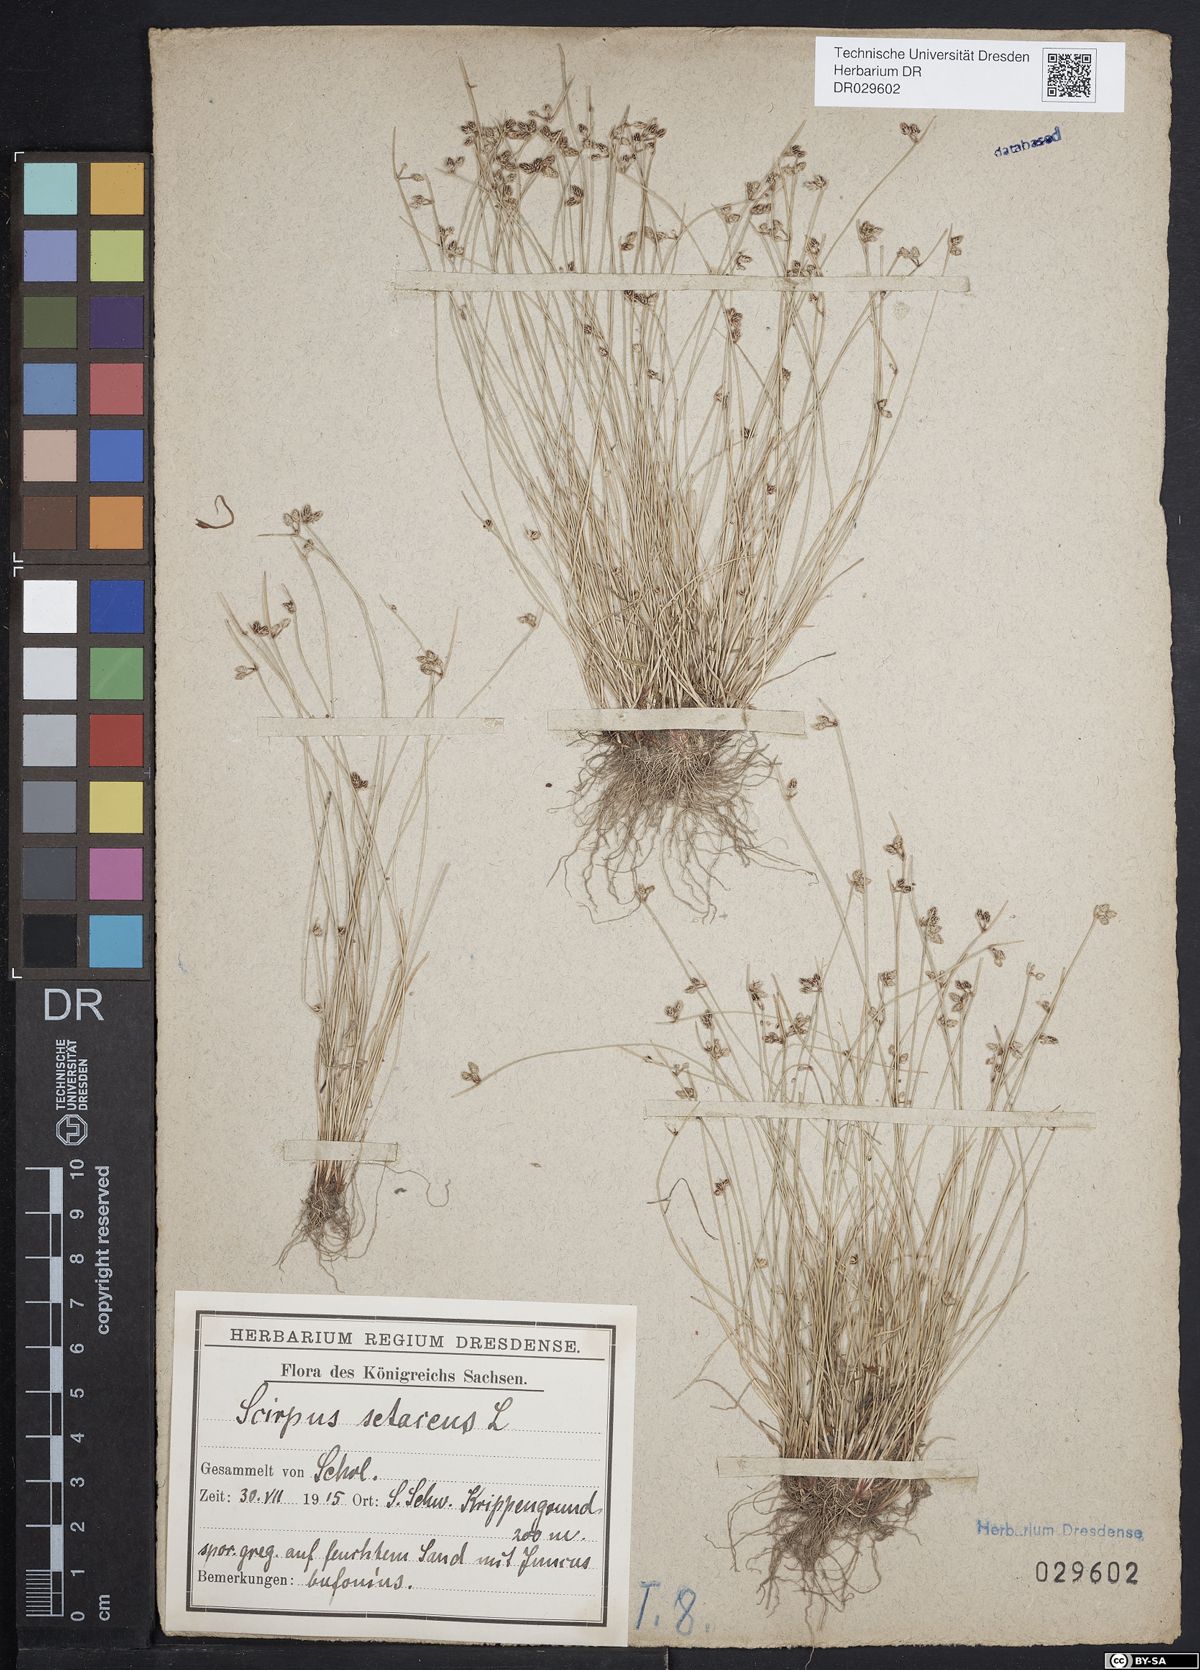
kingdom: Plantae
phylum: Tracheophyta
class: Liliopsida
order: Poales
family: Cyperaceae
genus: Isolepis
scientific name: Isolepis setacea
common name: Bristle club-rush
